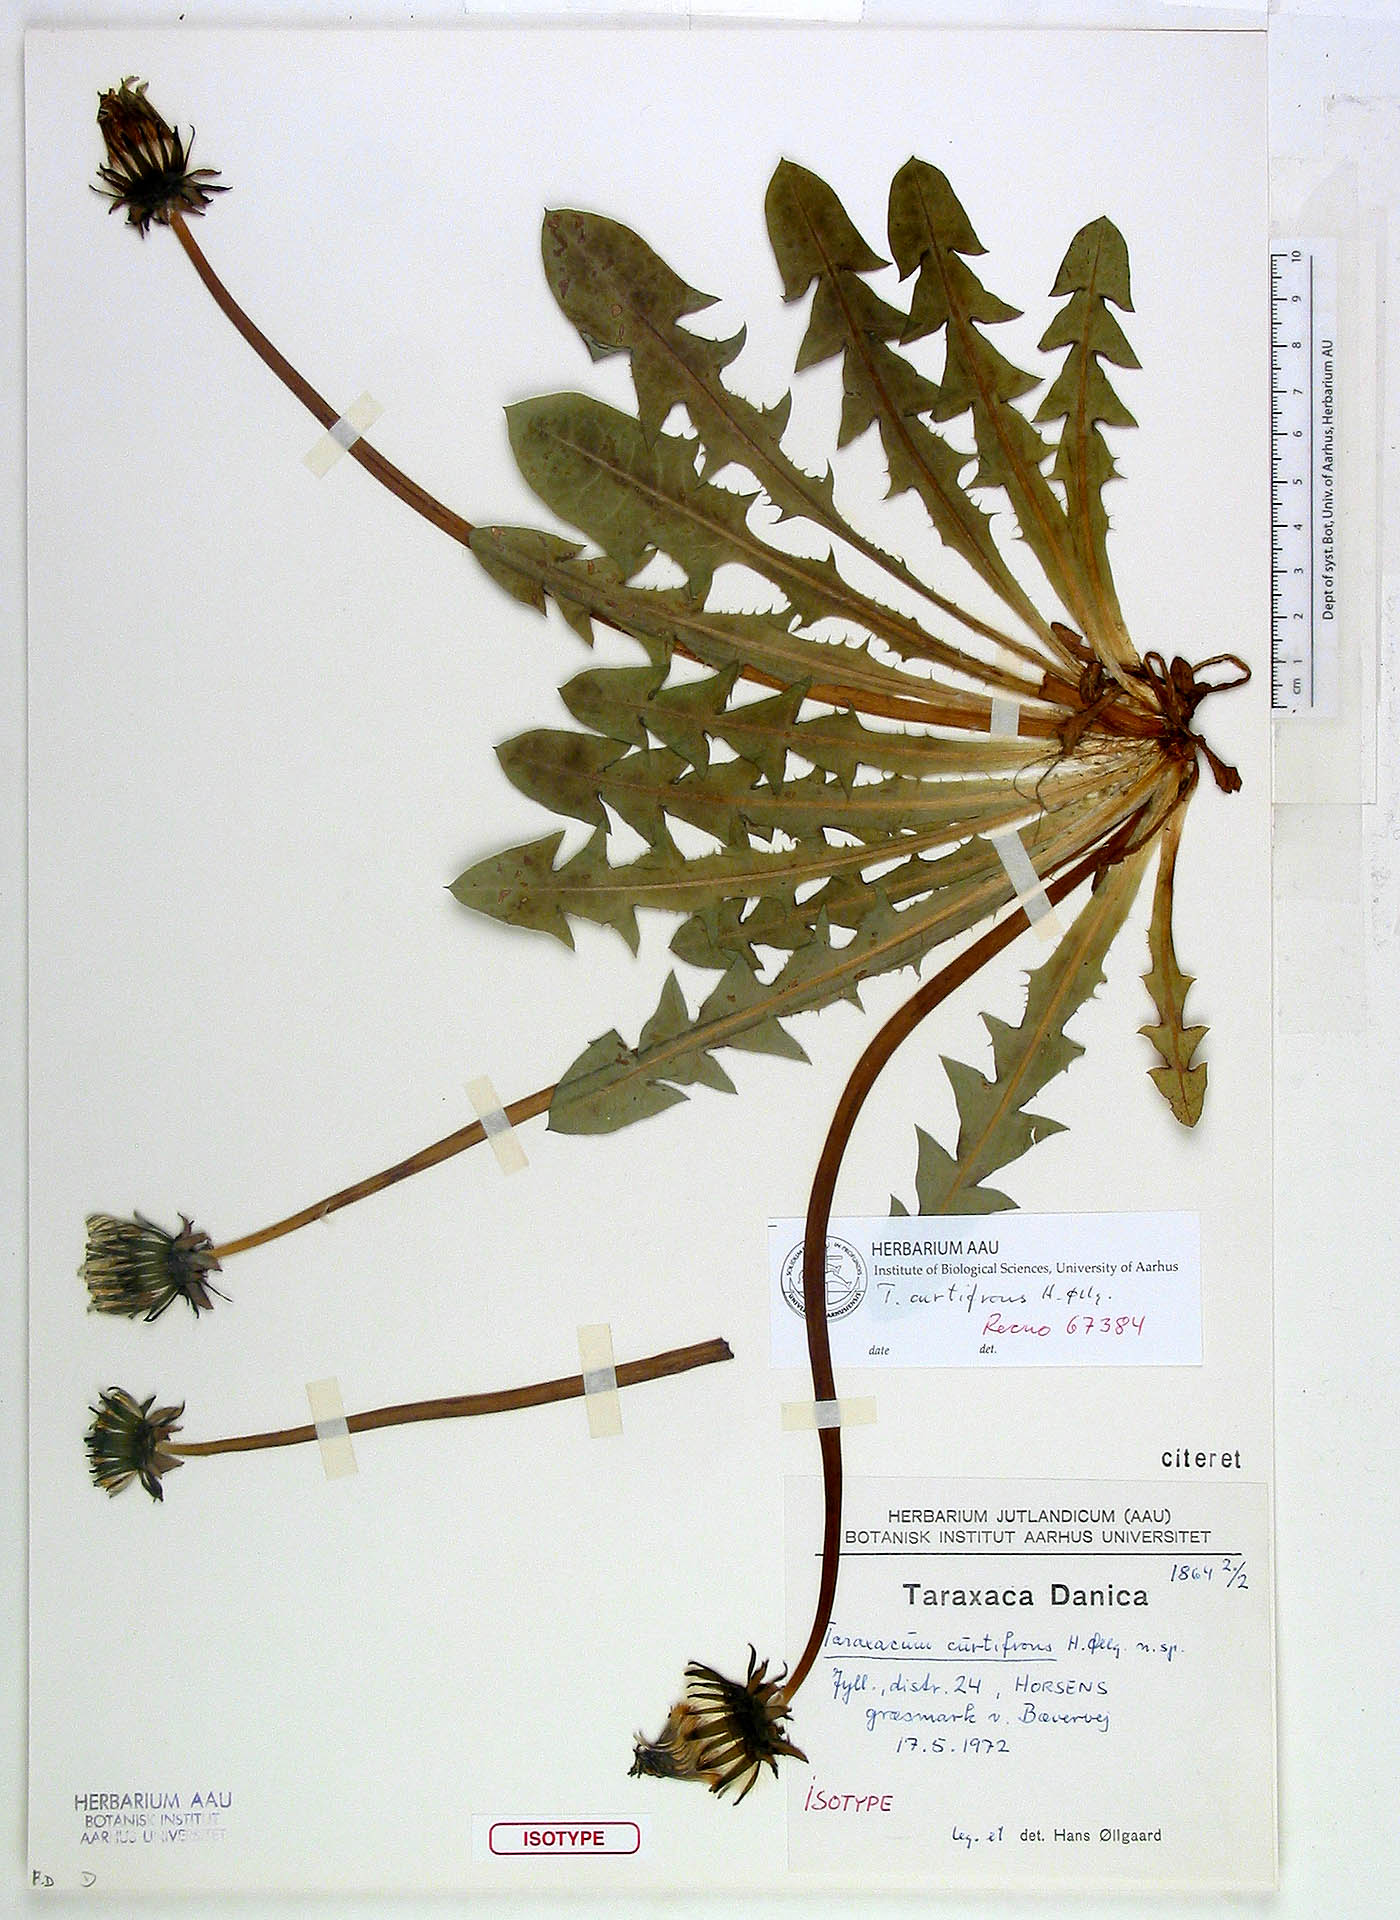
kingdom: Plantae
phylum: Tracheophyta
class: Magnoliopsida
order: Asterales
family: Asteraceae
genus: Taraxacum
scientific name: Taraxacum curtifrons
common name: Variable-leaved dandelion
